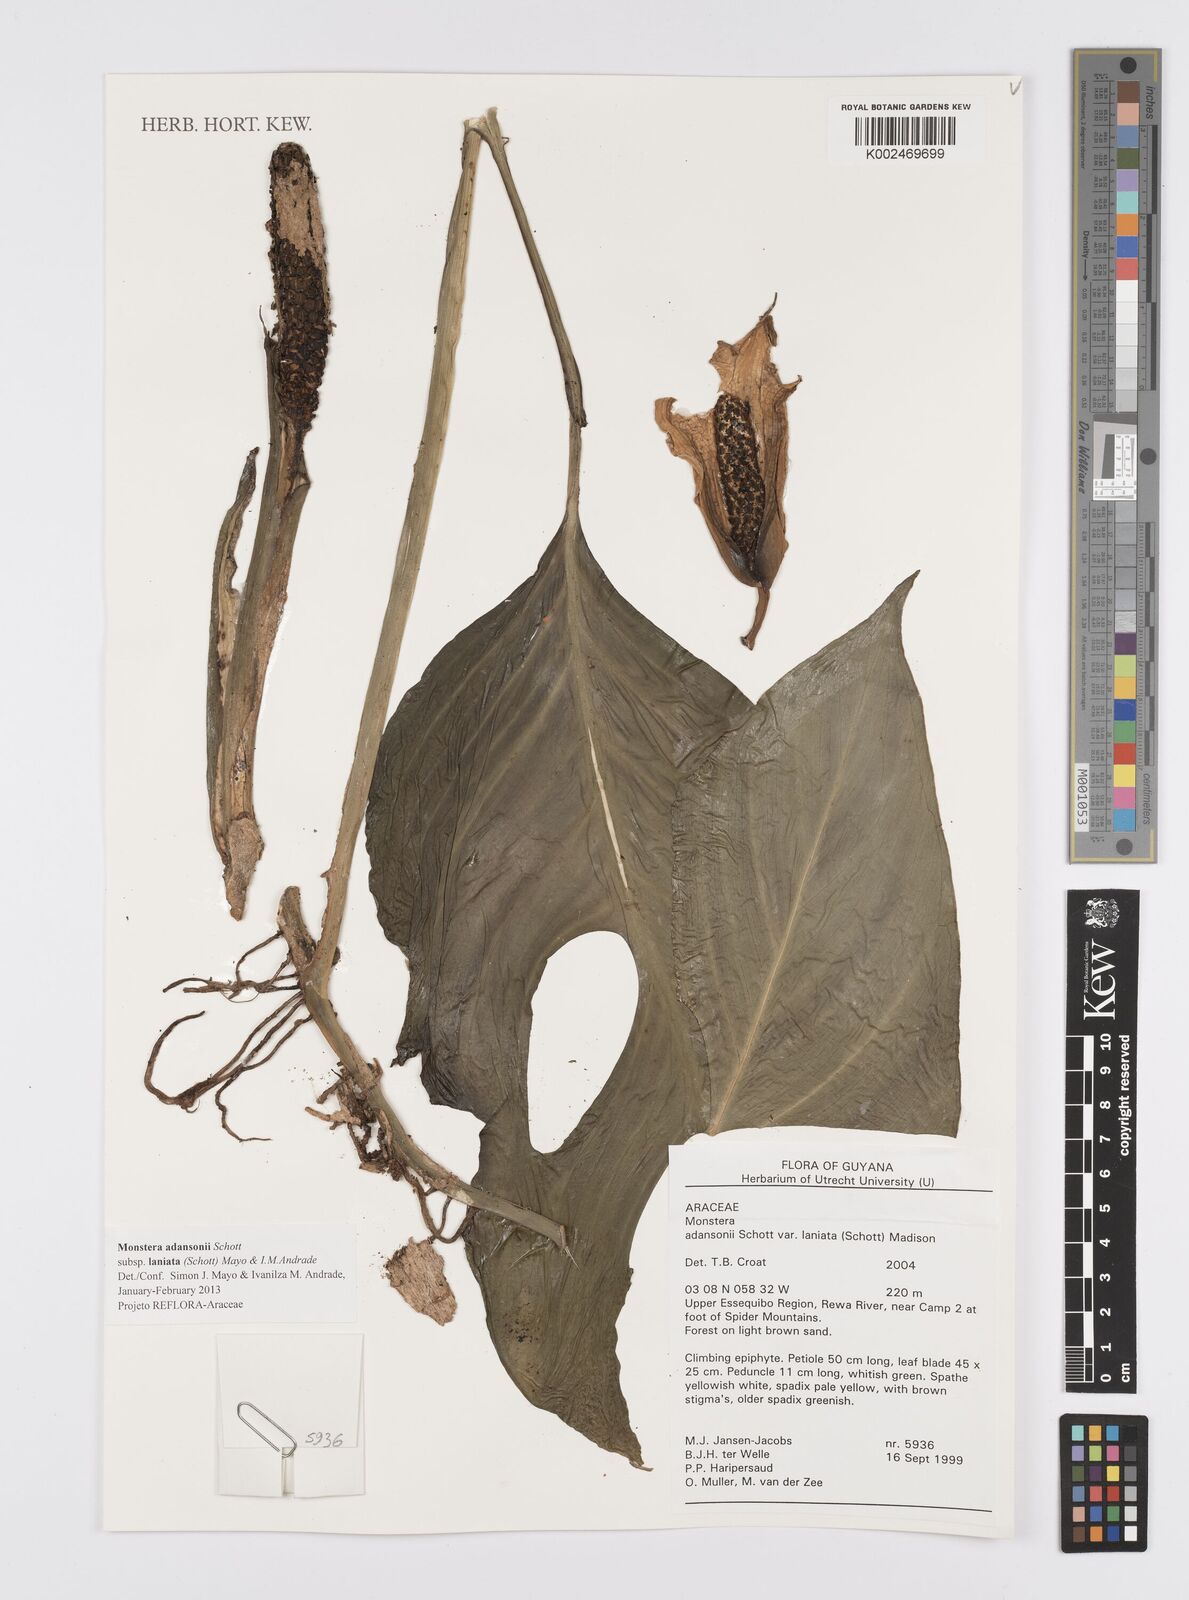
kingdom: Plantae
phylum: Tracheophyta
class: Liliopsida
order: Alismatales
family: Araceae
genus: Monstera
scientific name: Monstera adansonii
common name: Tarovine
